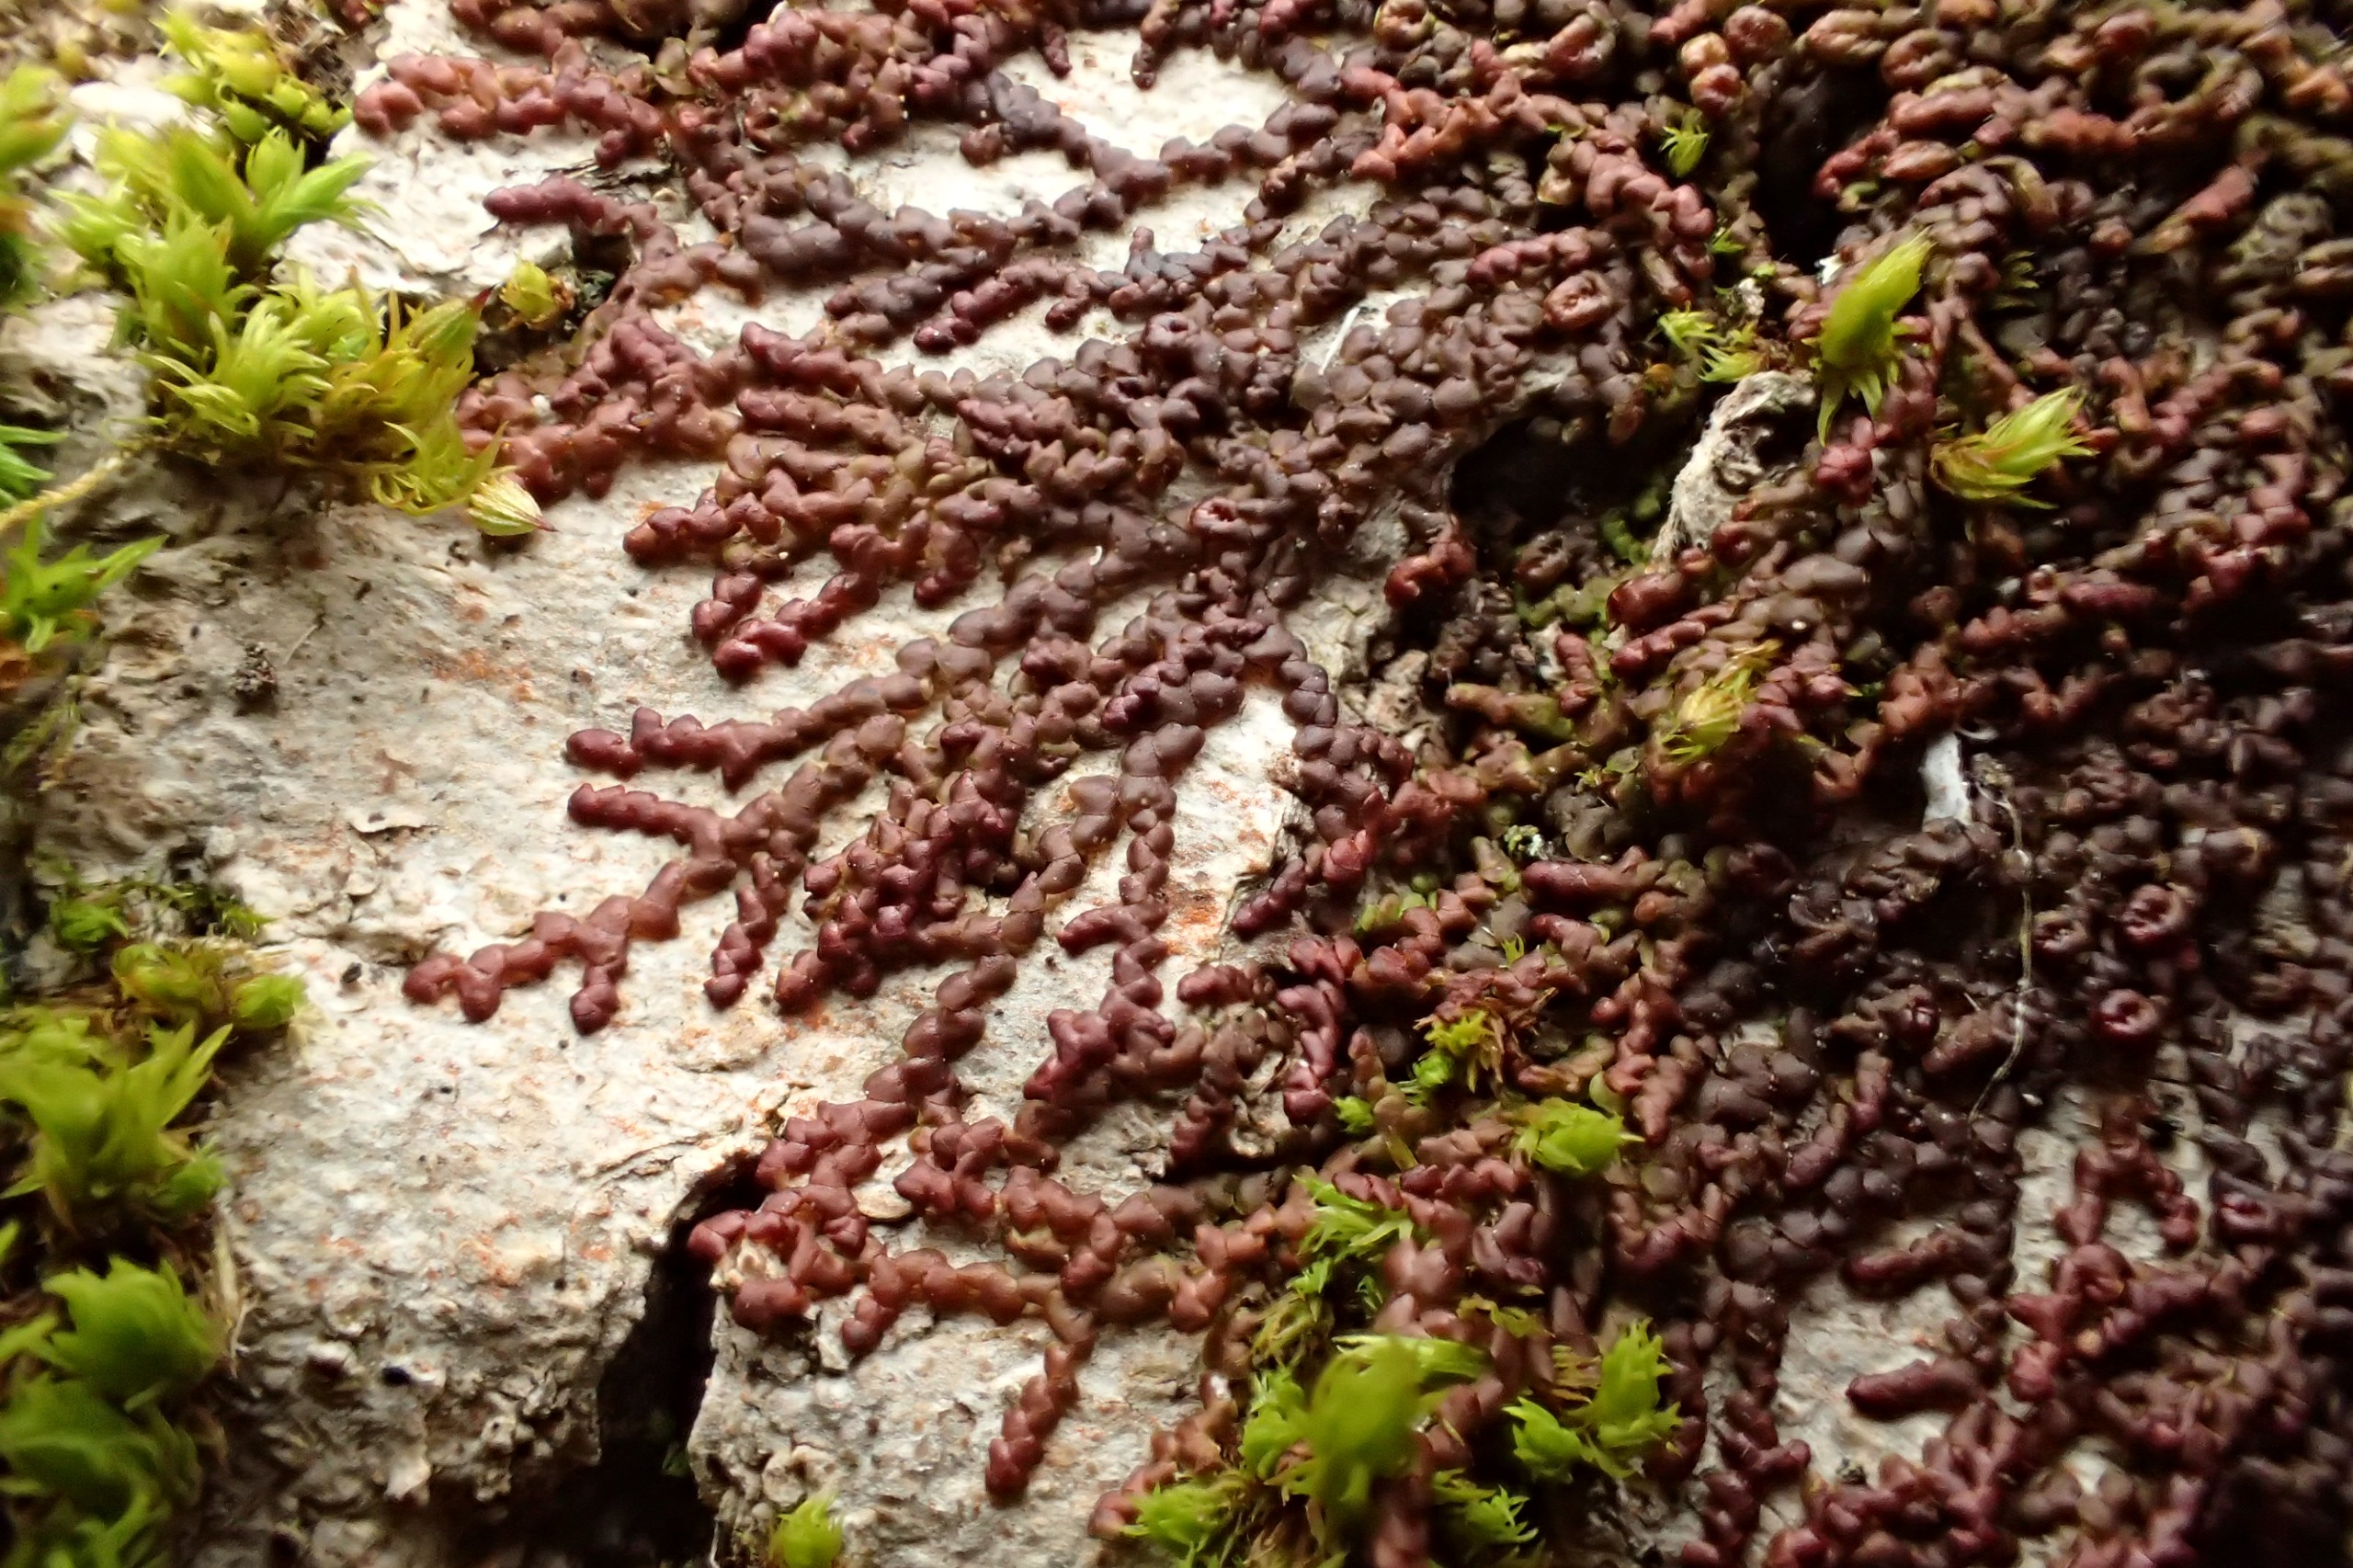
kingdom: Plantae
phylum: Marchantiophyta
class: Jungermanniopsida
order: Porellales
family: Frullaniaceae
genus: Frullania
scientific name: Frullania dilatata
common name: Mat bronzemos
